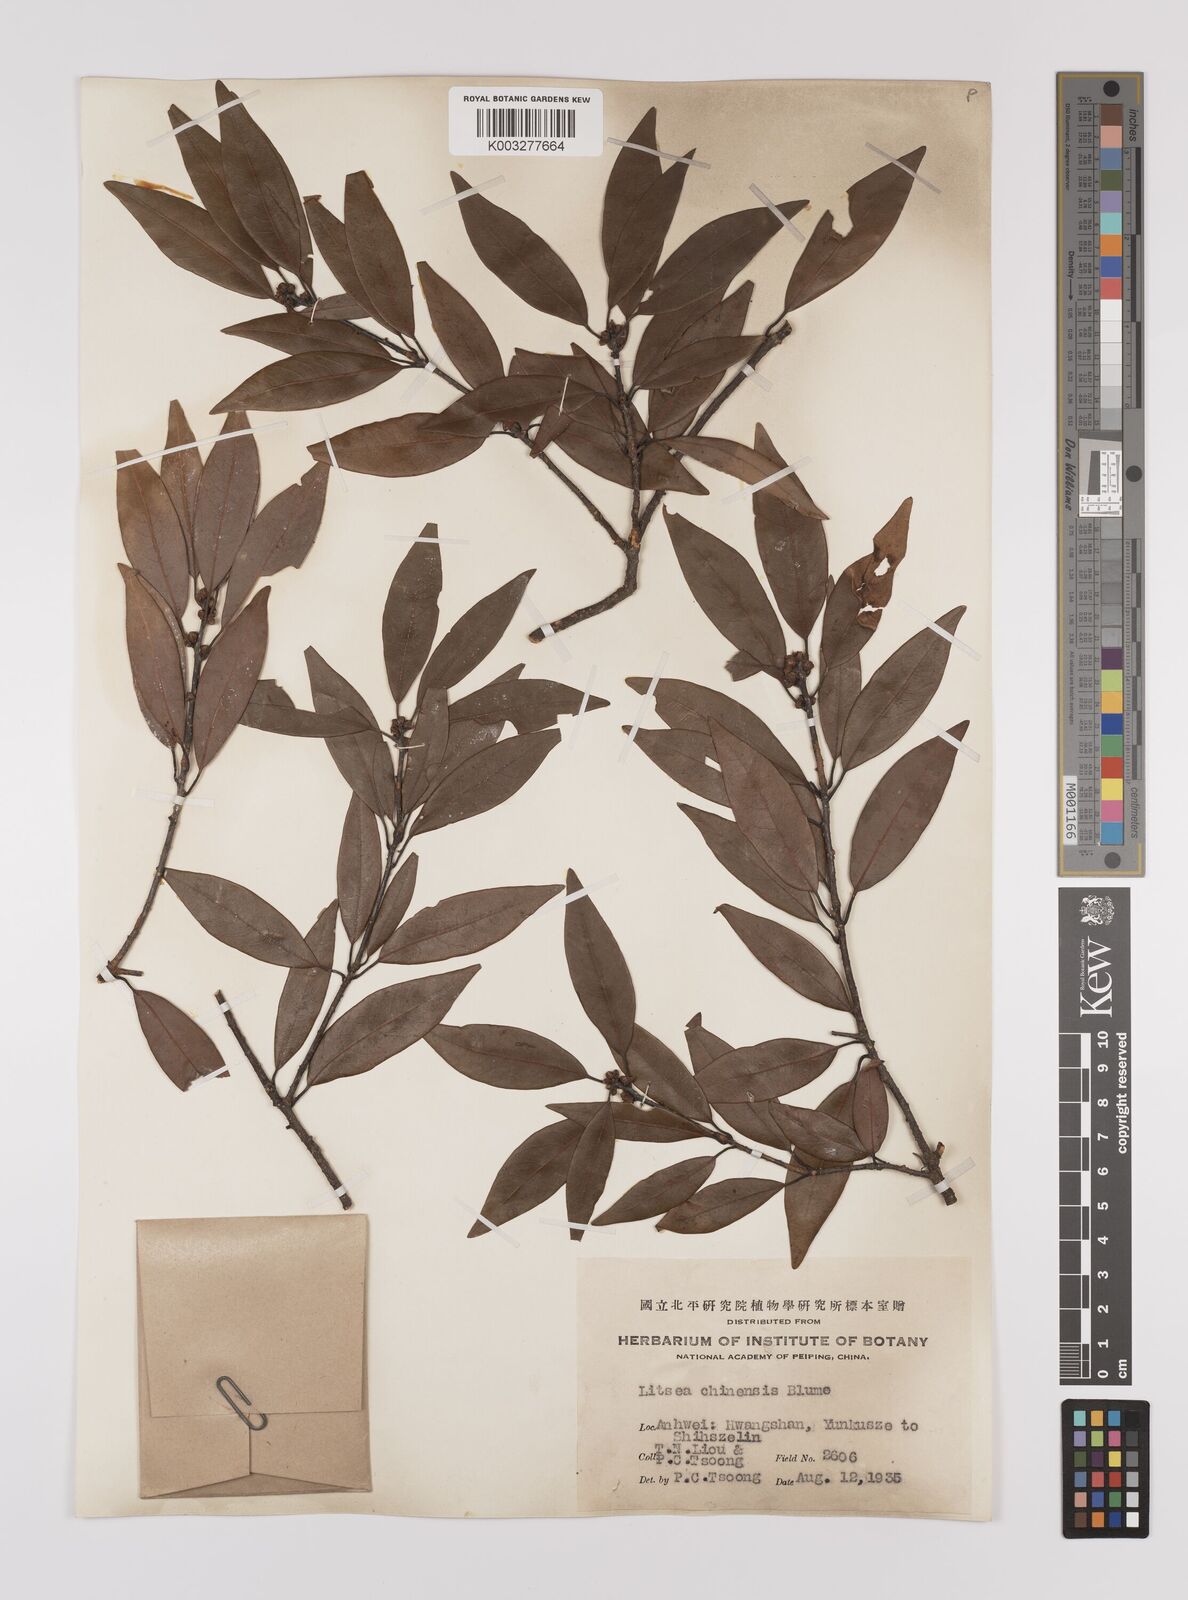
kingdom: Plantae
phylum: Tracheophyta
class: Magnoliopsida
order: Laurales
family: Lauraceae
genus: Litsea
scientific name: Litsea rotundifolia
